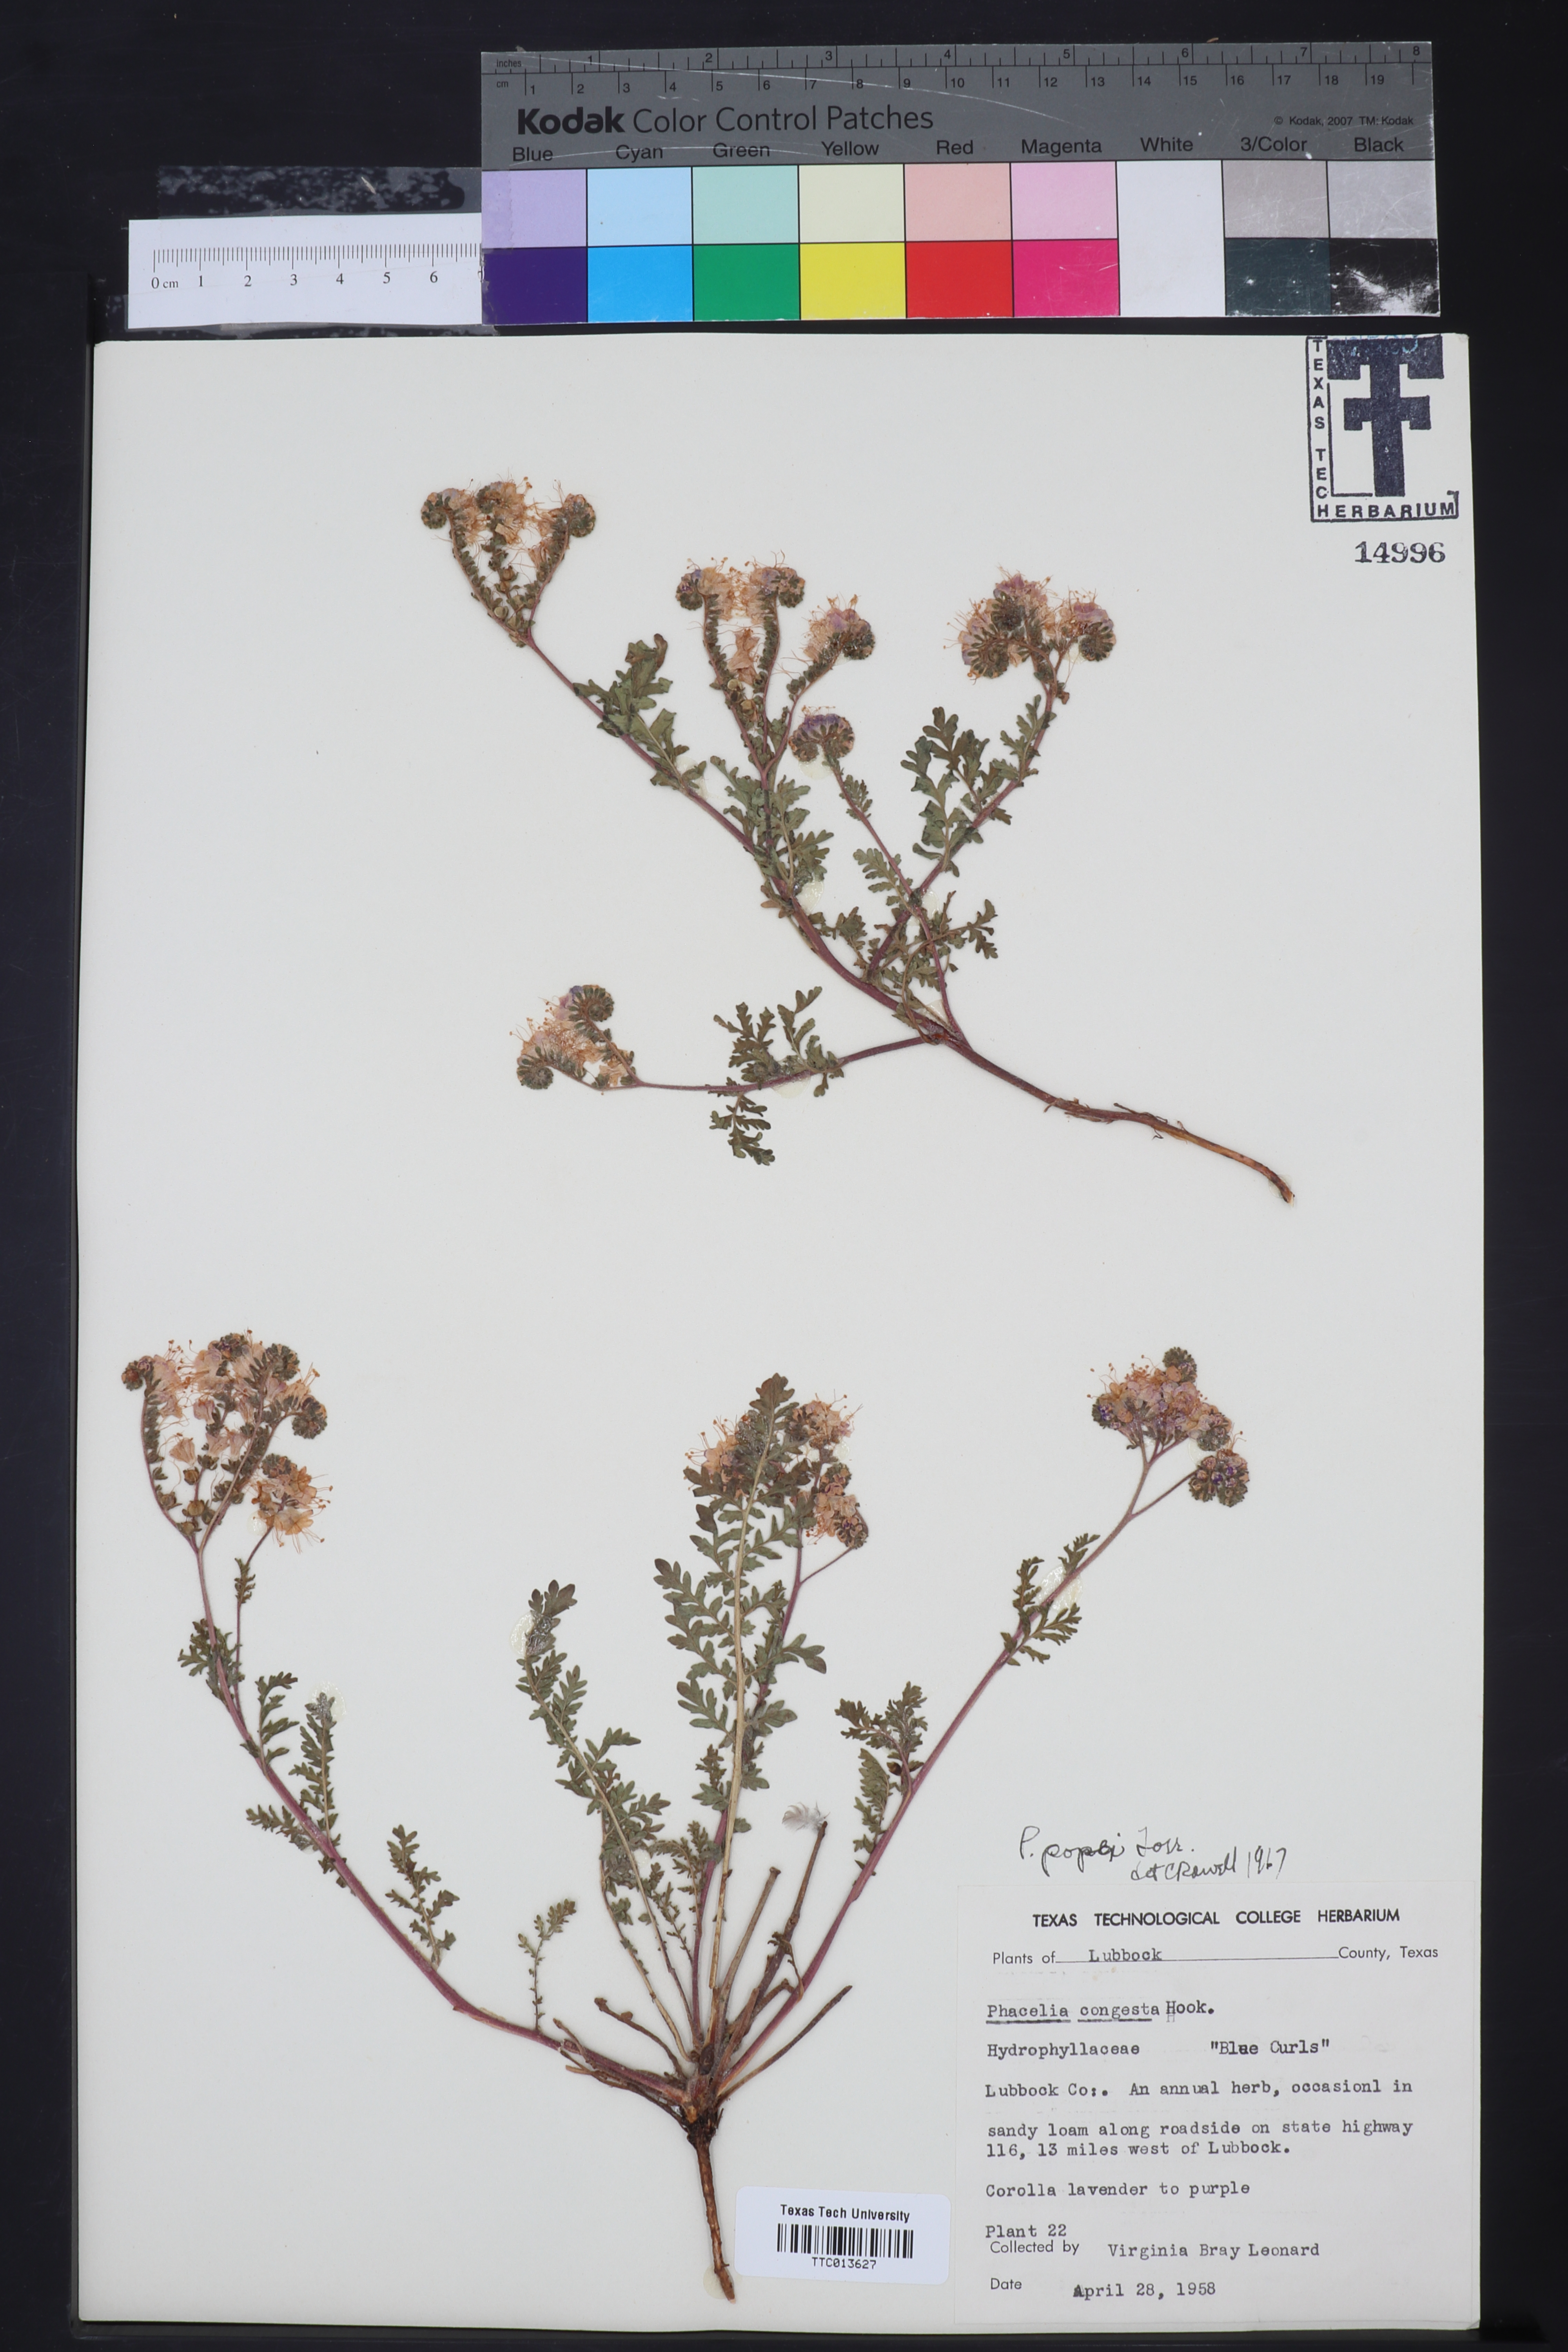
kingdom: Plantae
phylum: Tracheophyta
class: Magnoliopsida
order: Boraginales
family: Hydrophyllaceae
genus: Phacelia
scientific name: Phacelia popei
